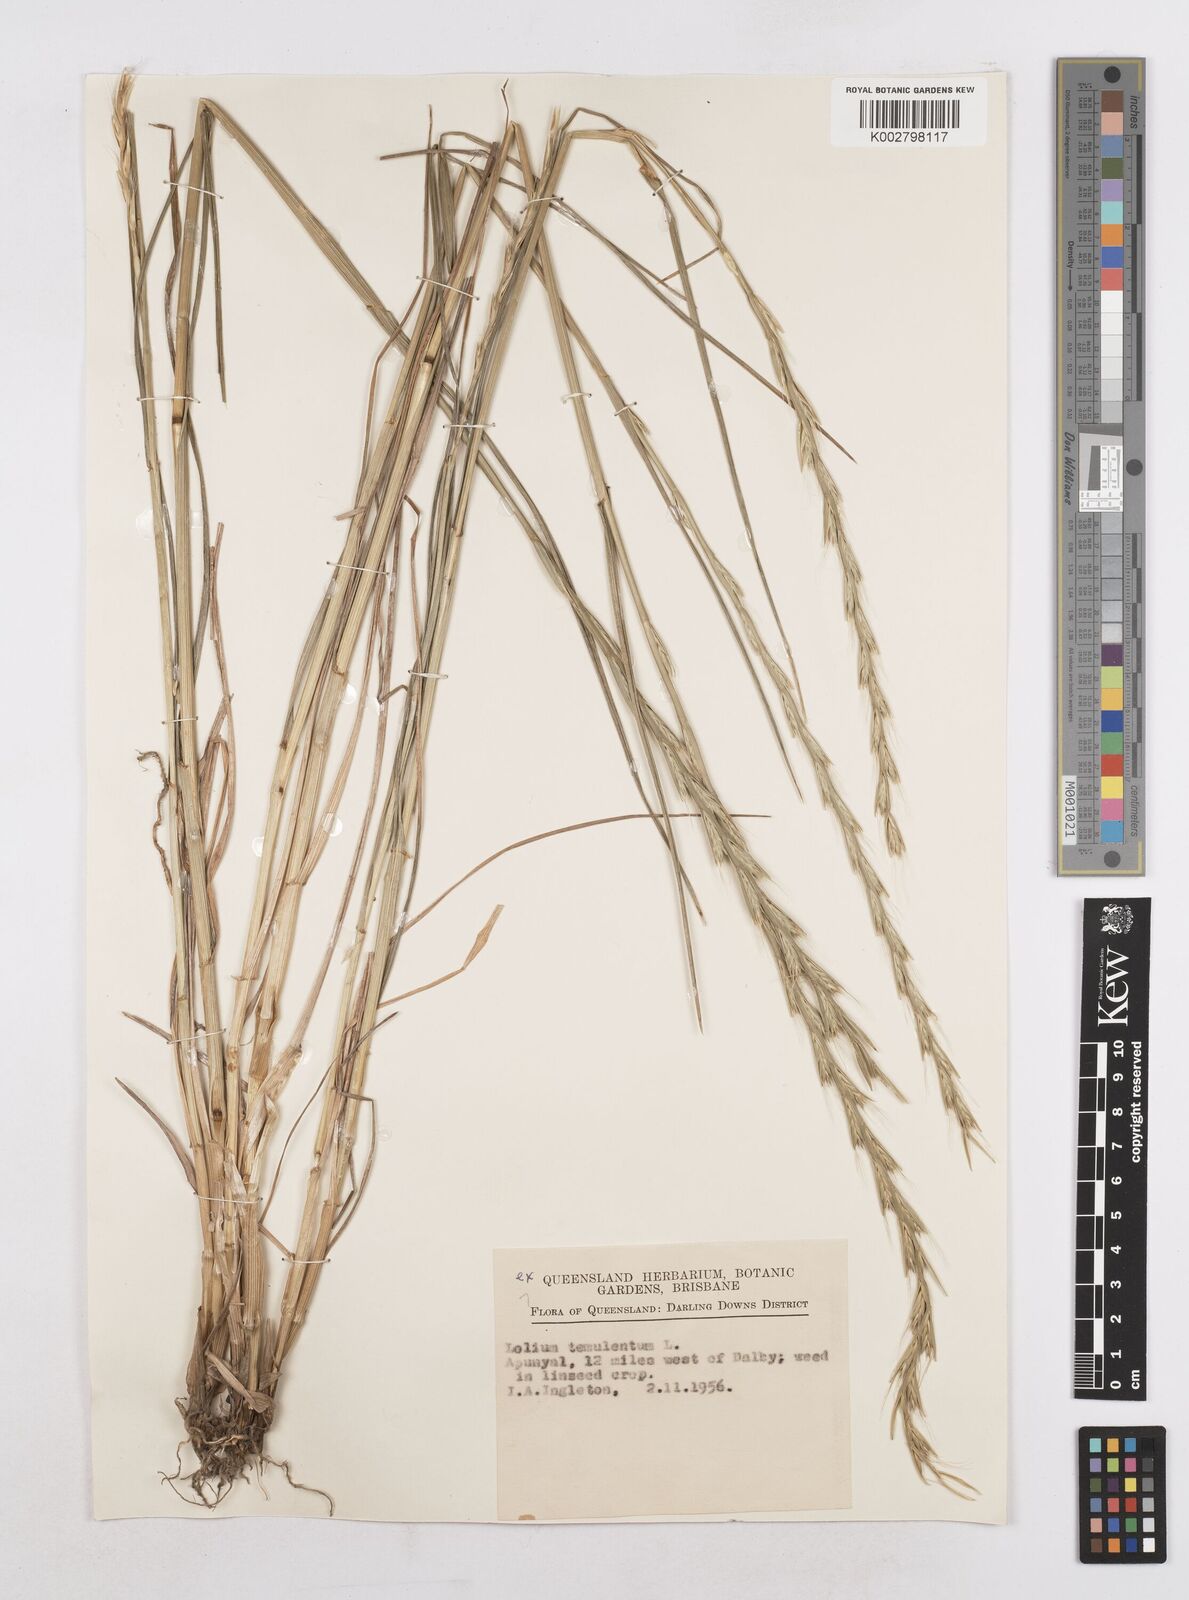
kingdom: Plantae
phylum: Tracheophyta
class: Liliopsida
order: Poales
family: Poaceae
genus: Lolium
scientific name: Lolium temulentum
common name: Darnel
